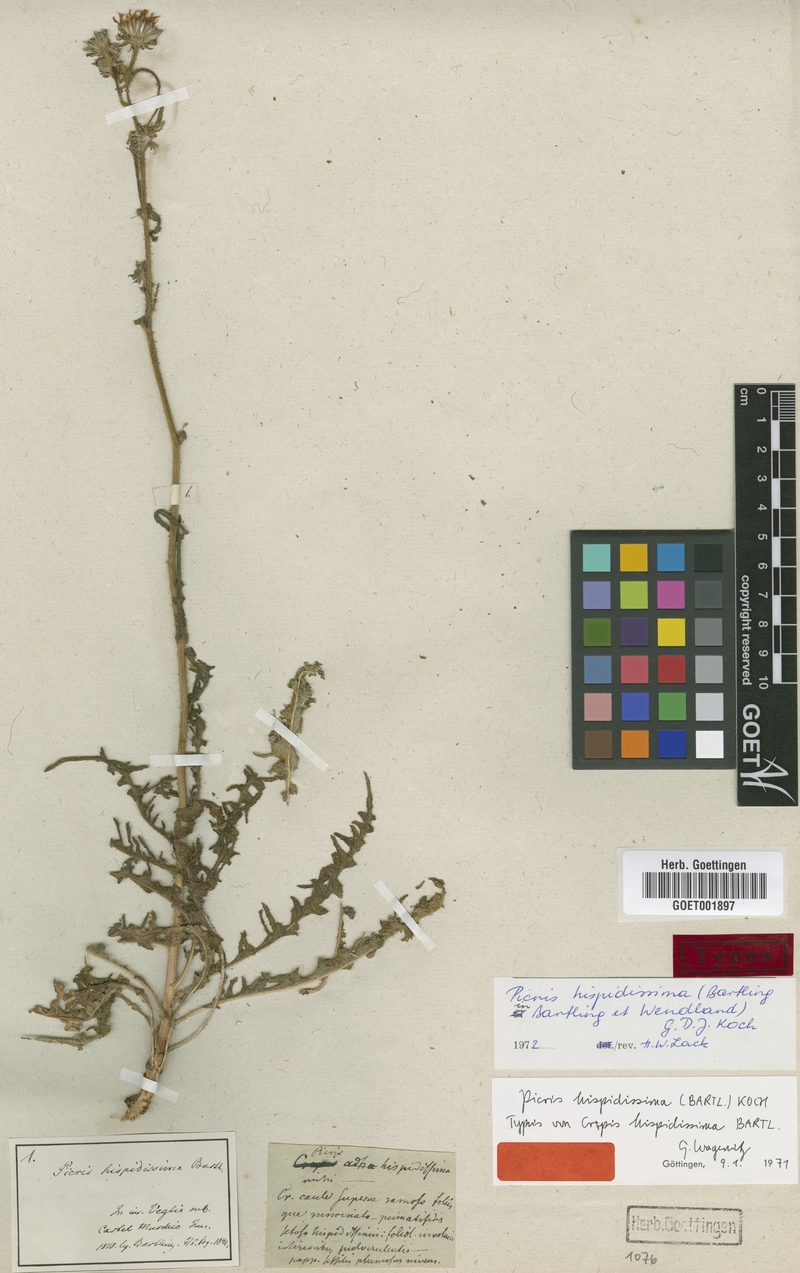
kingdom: Plantae
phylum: Tracheophyta
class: Magnoliopsida
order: Asterales
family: Asteraceae
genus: Picris
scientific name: Picris hispidissima
